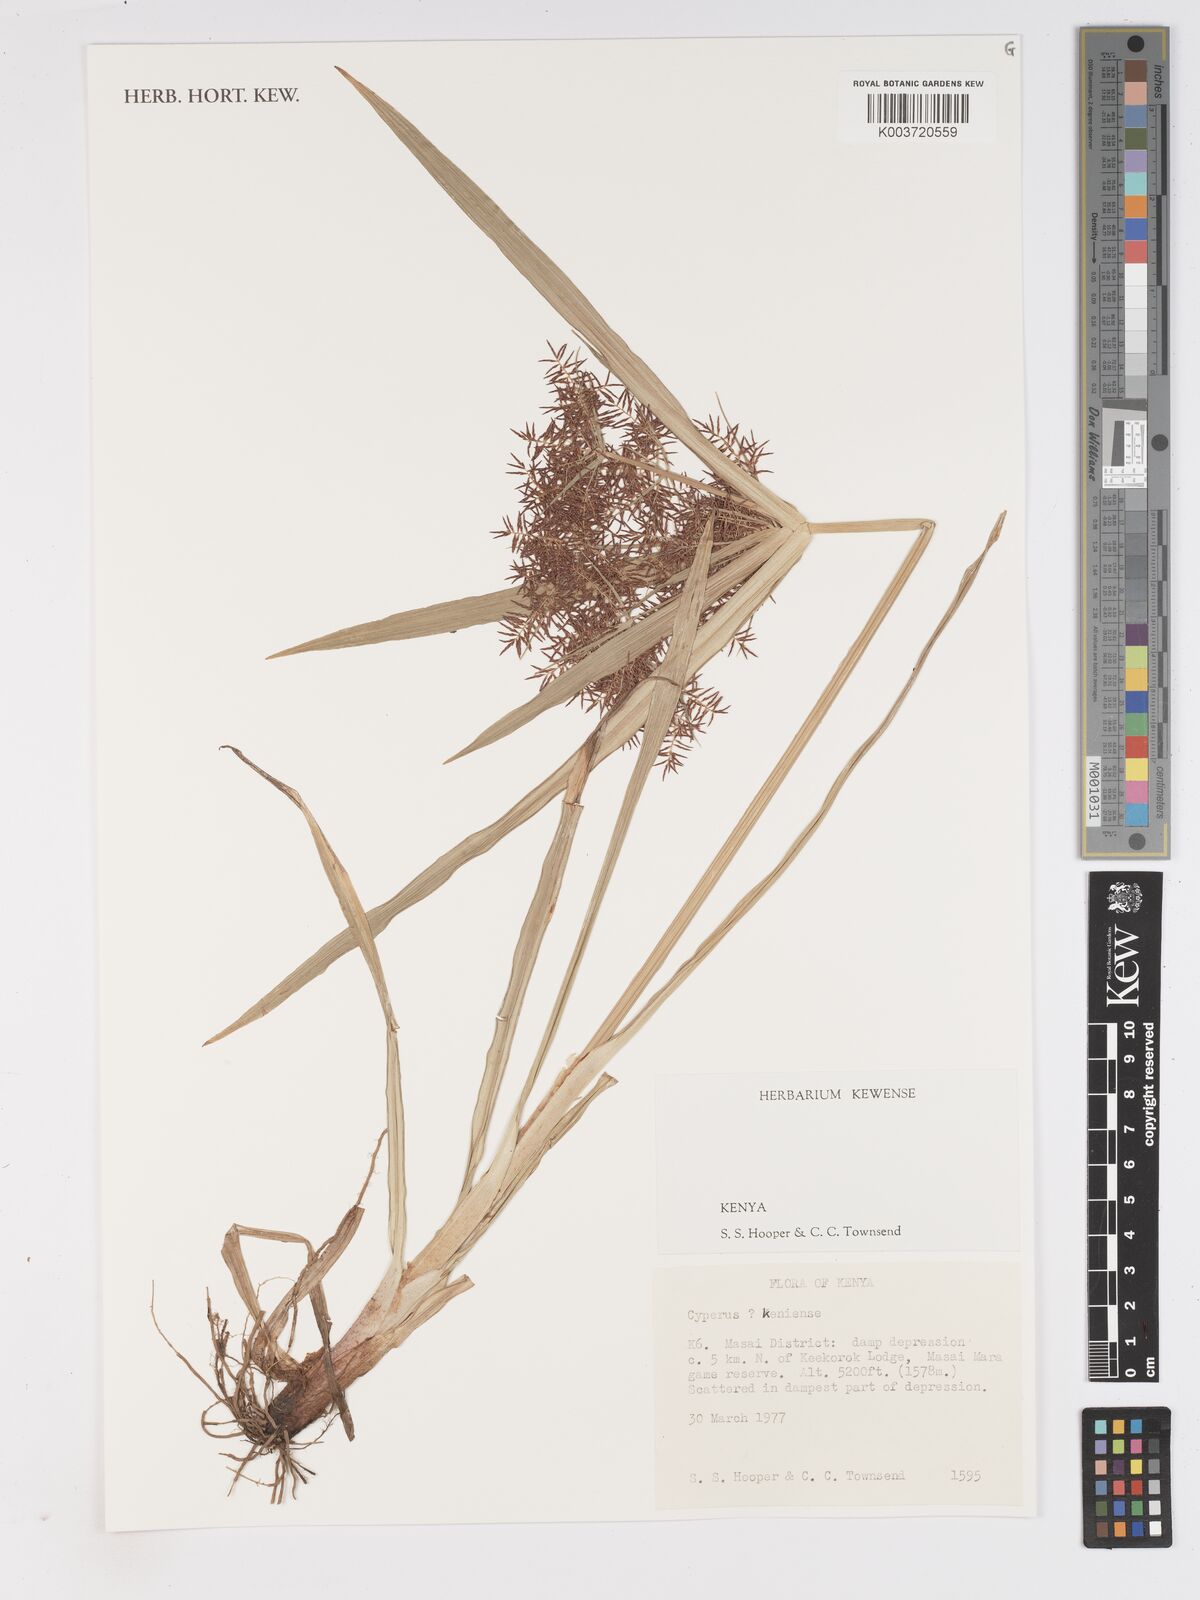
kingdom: Plantae
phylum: Tracheophyta
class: Liliopsida
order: Poales
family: Cyperaceae
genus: Cyperus
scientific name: Cyperus distans
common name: Slender cyperus
